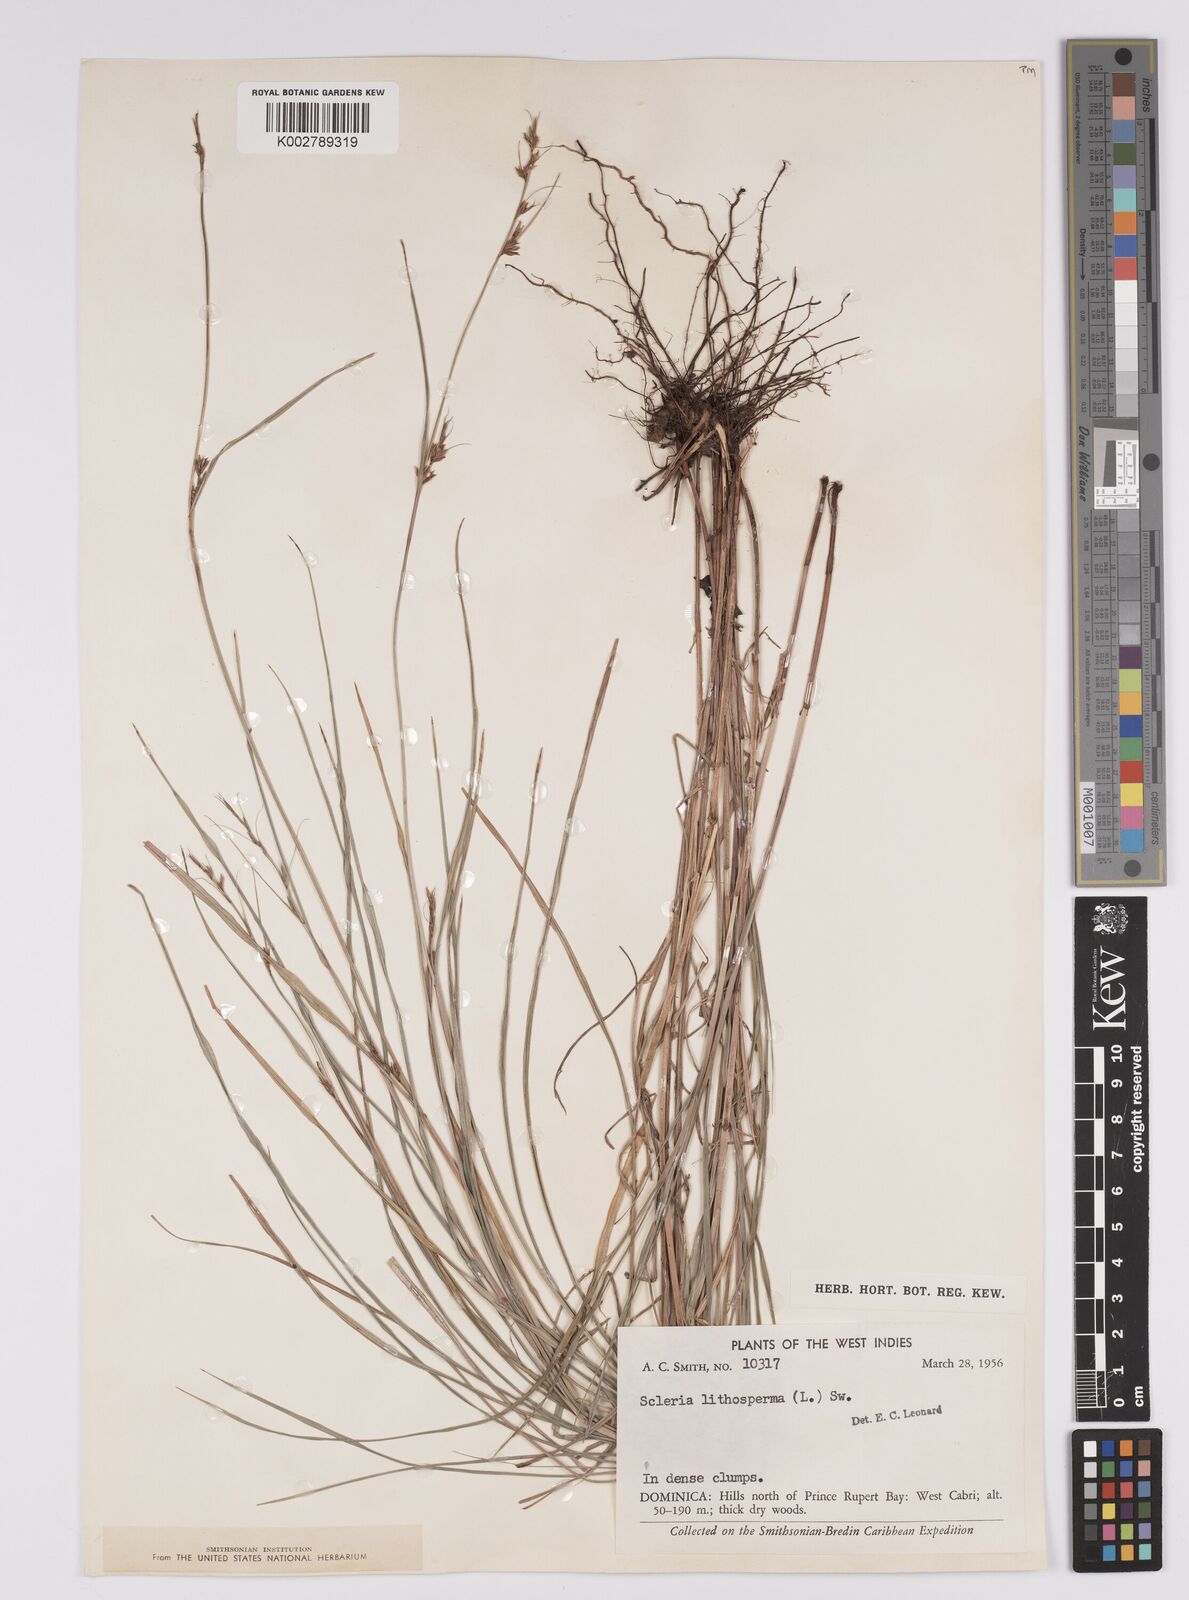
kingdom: Plantae
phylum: Tracheophyta
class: Liliopsida
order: Poales
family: Cyperaceae
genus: Scleria
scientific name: Scleria lithosperma
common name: Florida keys nut-rush
